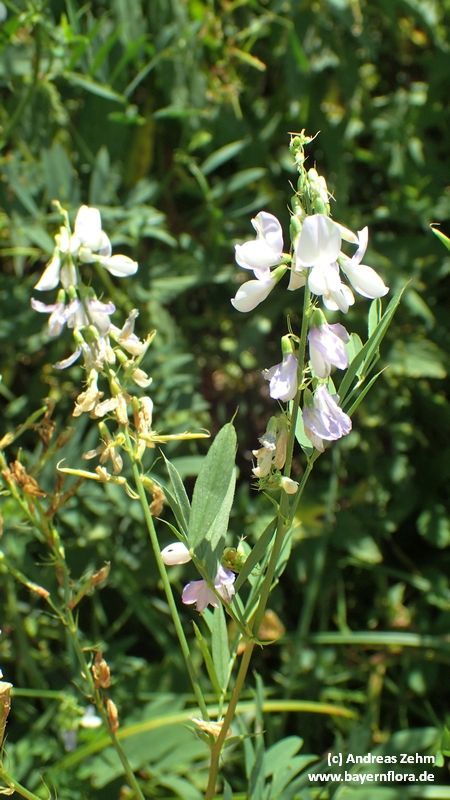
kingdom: Plantae
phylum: Tracheophyta
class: Magnoliopsida
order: Fabales
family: Fabaceae
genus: Galega
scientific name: Galega officinalis
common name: Goat's-rue
